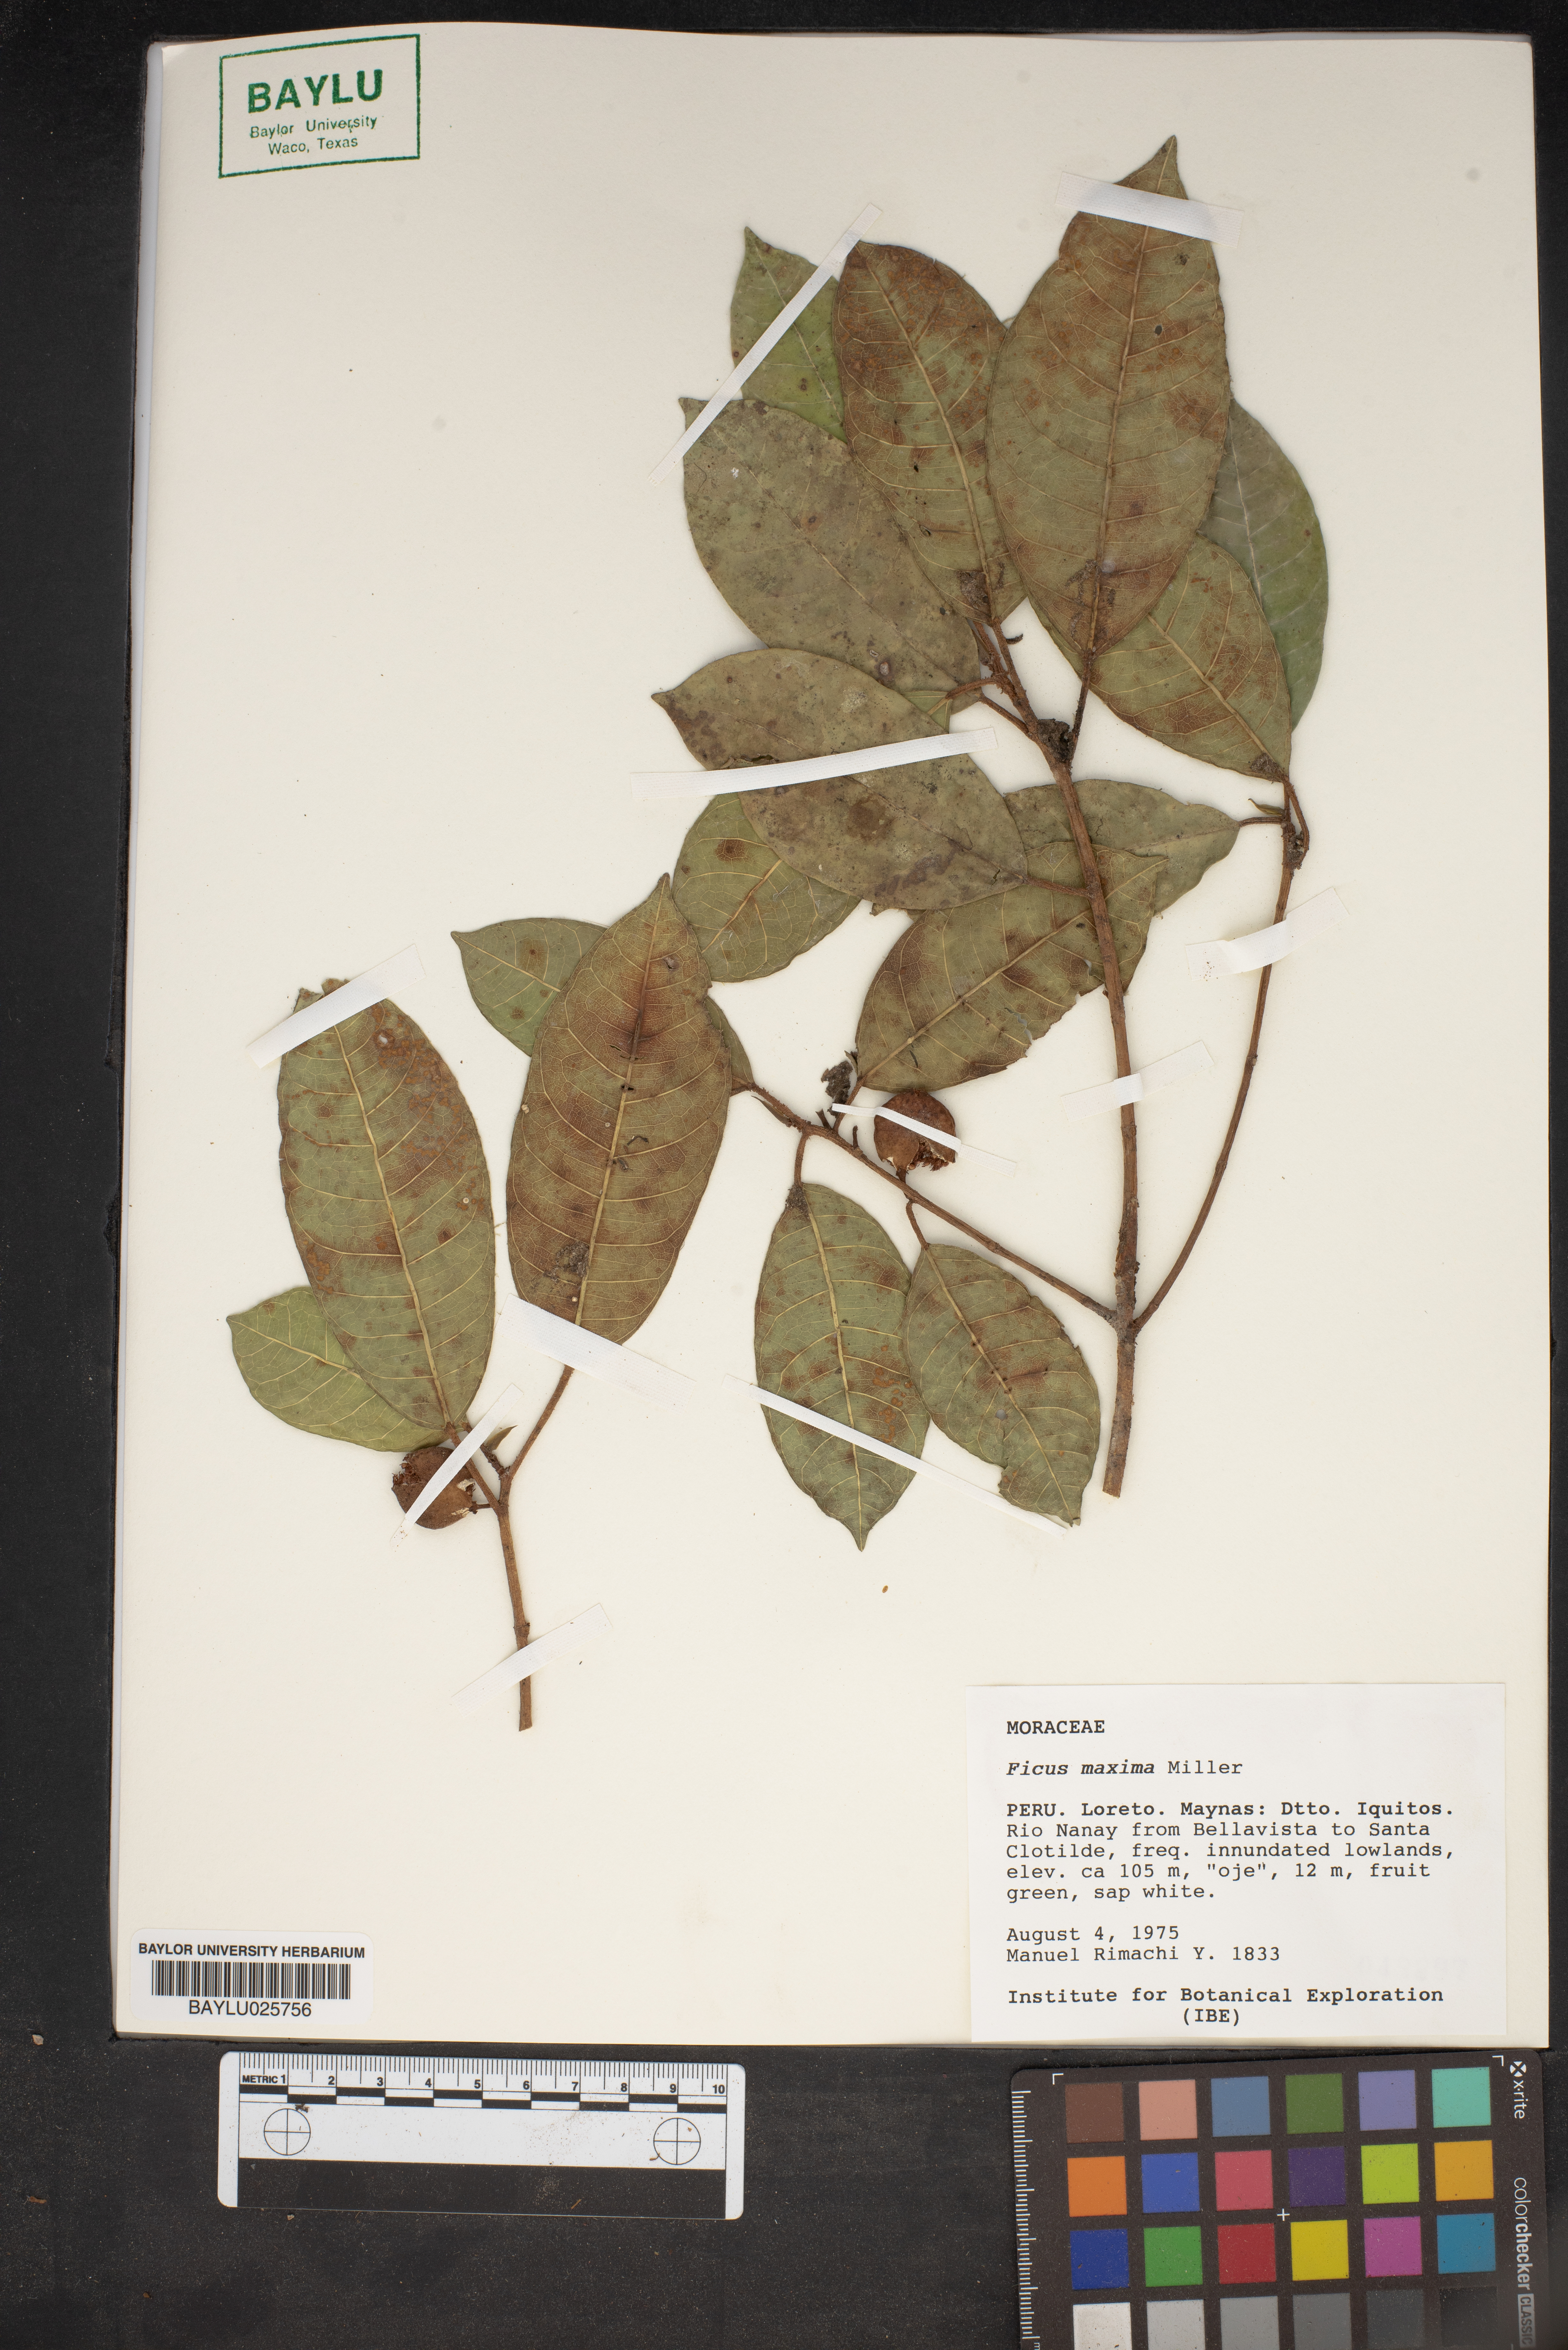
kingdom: Plantae
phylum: Tracheophyta
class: Magnoliopsida
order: Rosales
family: Moraceae
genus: Ficus
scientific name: Ficus maxima
